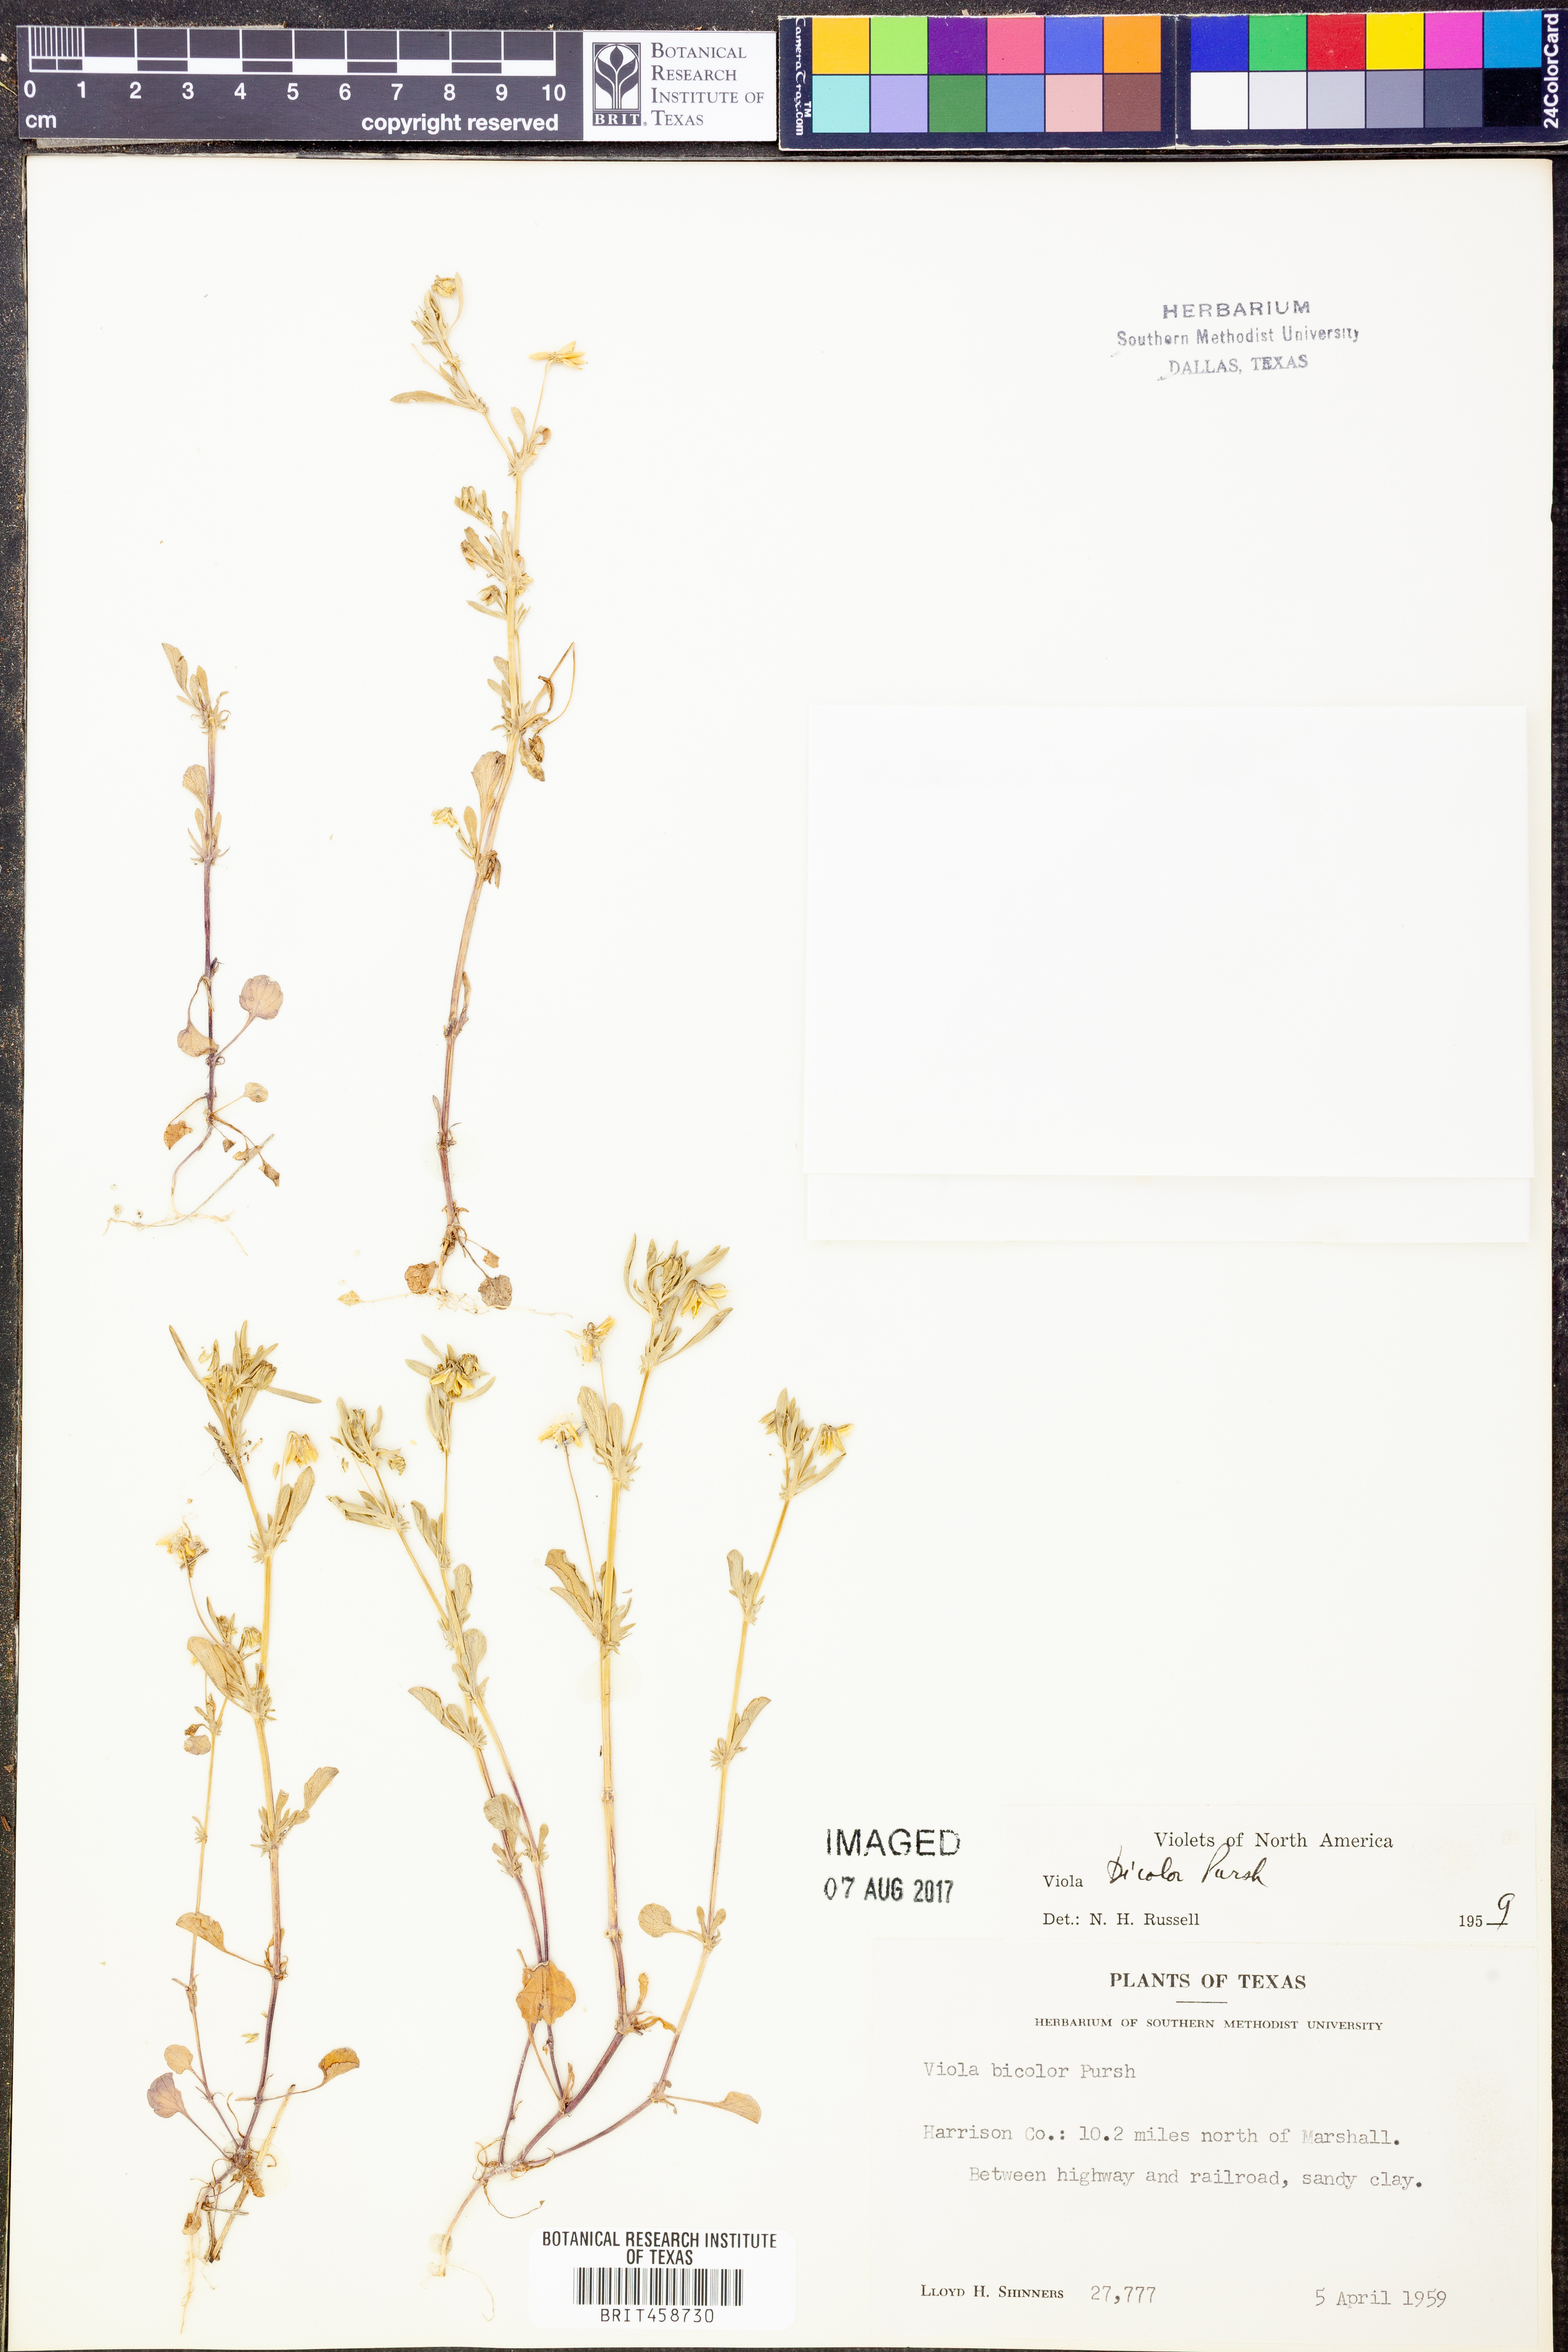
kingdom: Plantae
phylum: Tracheophyta
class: Magnoliopsida
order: Malpighiales
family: Violaceae
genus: Viola
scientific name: Viola rafinesquei
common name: American field pansy
